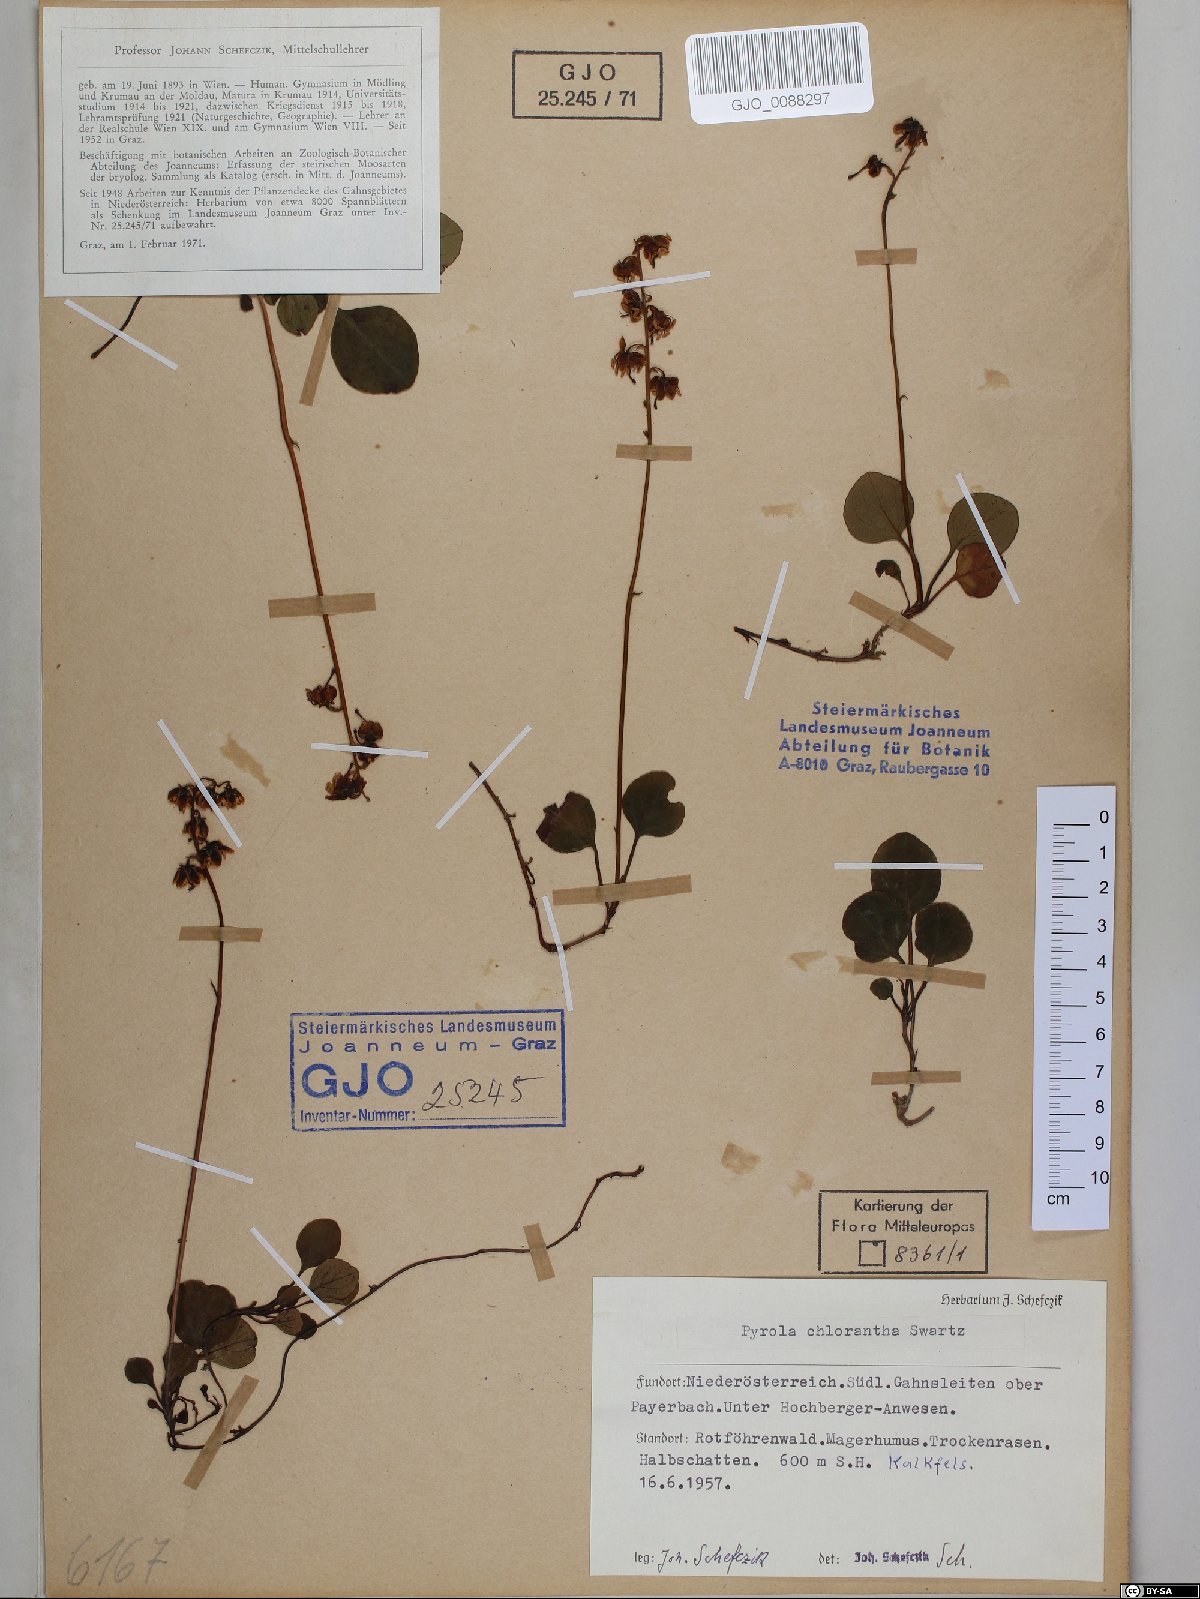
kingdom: Plantae
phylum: Tracheophyta
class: Magnoliopsida
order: Ericales
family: Ericaceae
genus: Pyrola
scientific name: Pyrola chlorantha
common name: Green wintergreen
